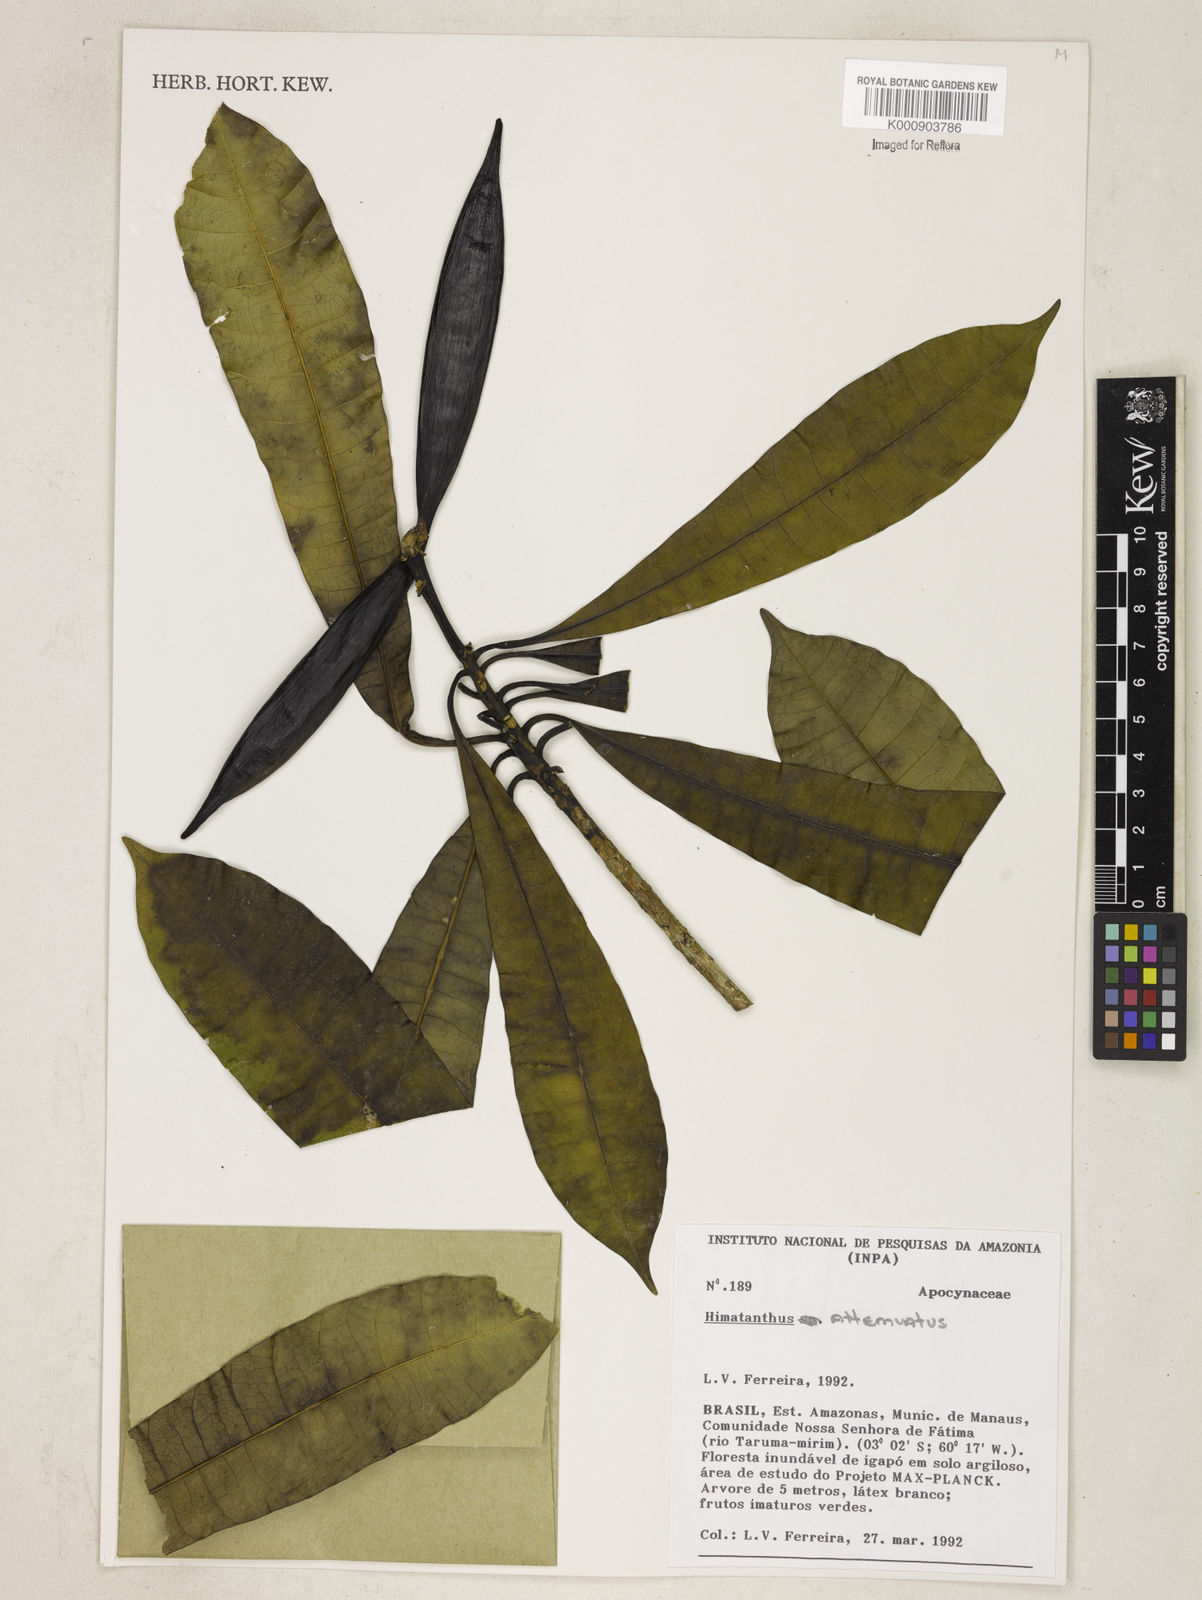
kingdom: Plantae
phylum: Tracheophyta
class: Magnoliopsida
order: Gentianales
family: Apocynaceae
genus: Himatanthus
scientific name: Himatanthus attenuatus
